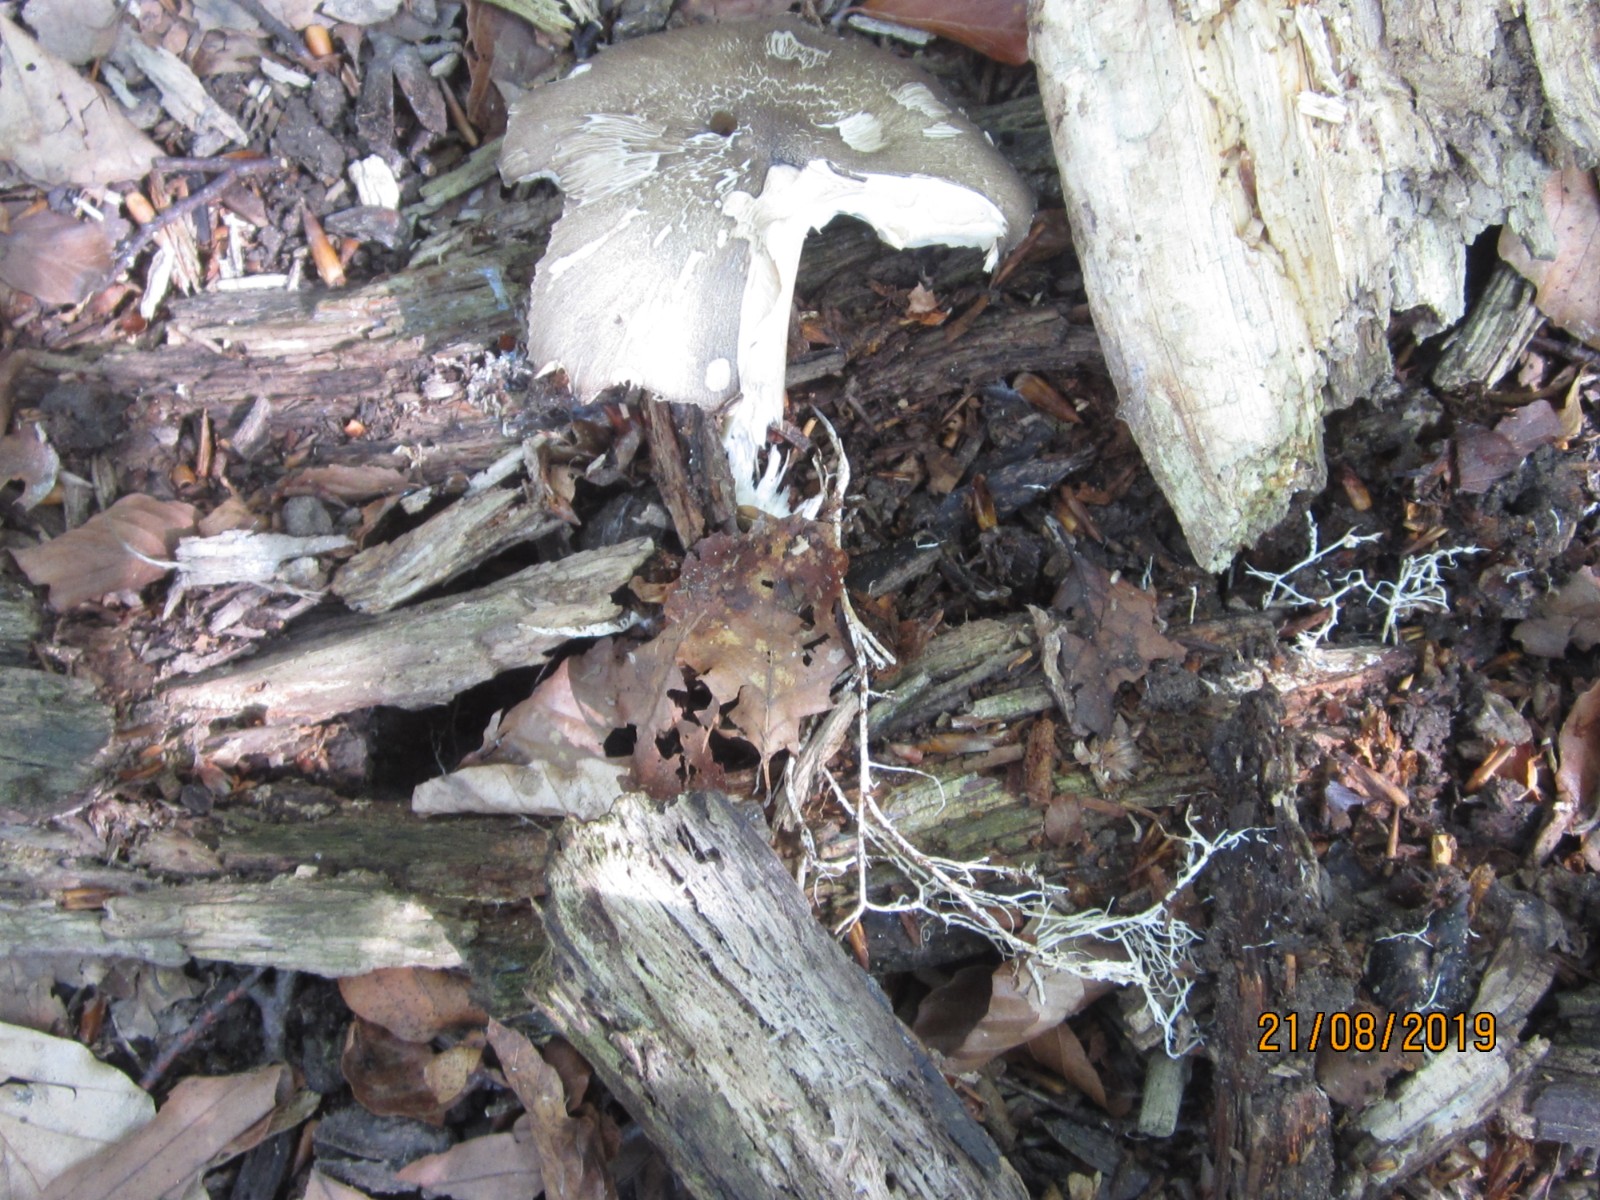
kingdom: Fungi
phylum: Basidiomycota
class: Agaricomycetes
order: Agaricales
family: Tricholomataceae
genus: Megacollybia
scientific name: Megacollybia platyphylla
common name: bredbladet væbnerhat
